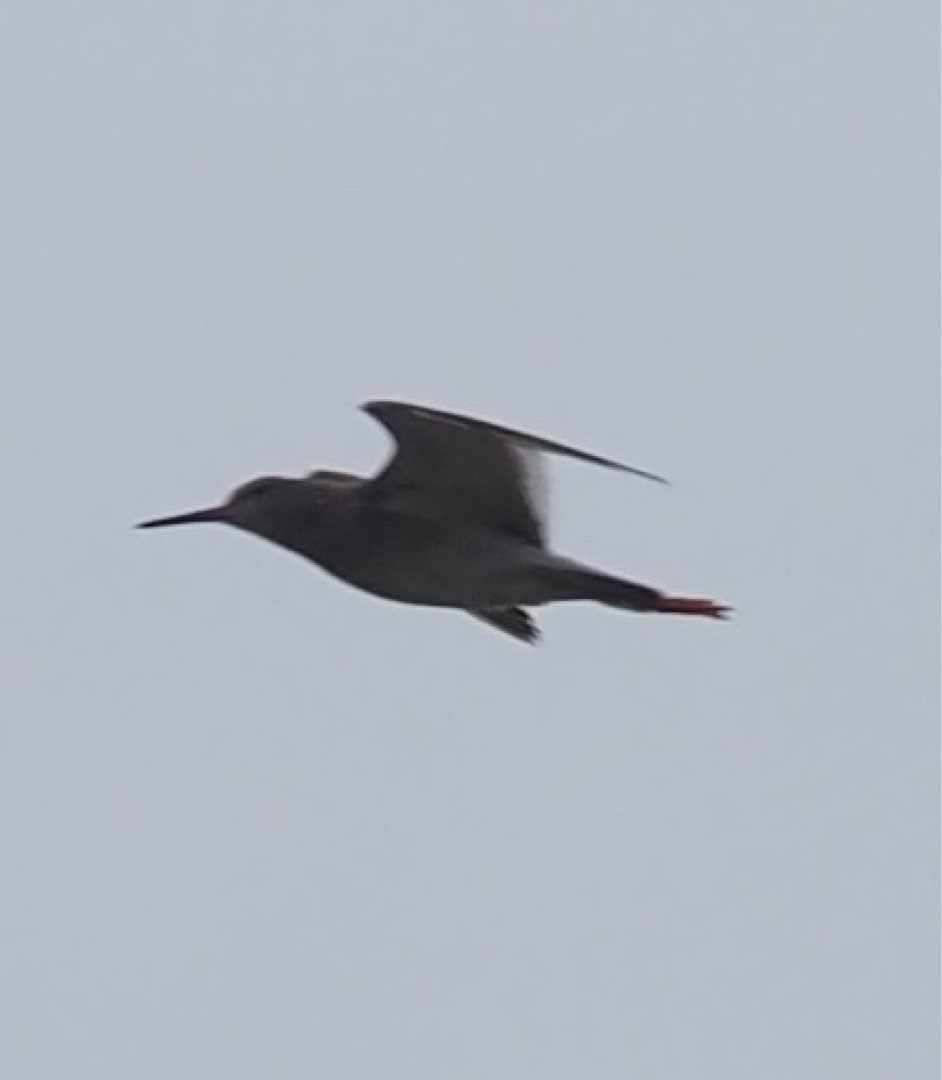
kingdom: Animalia
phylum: Chordata
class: Aves
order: Charadriiformes
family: Scolopacidae
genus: Tringa
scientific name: Tringa totanus
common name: Rødben
